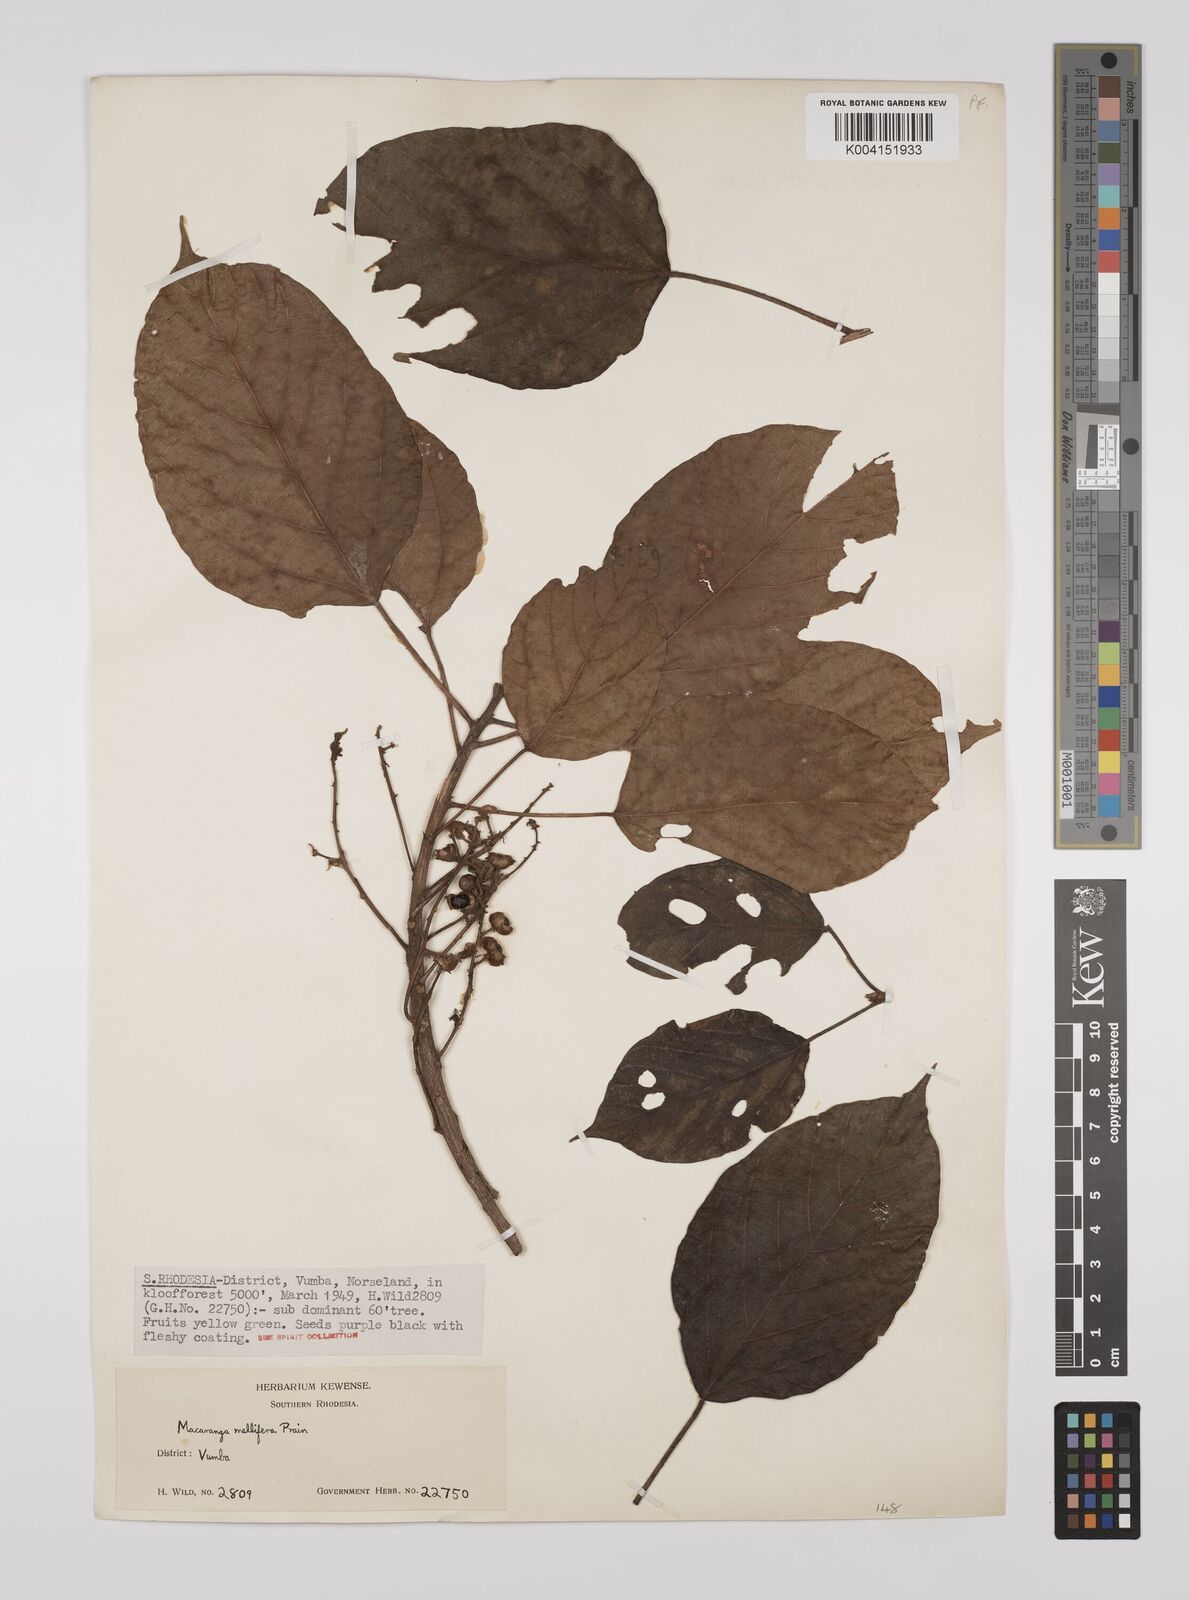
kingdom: Plantae
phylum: Tracheophyta
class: Magnoliopsida
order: Malpighiales
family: Euphorbiaceae
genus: Macaranga
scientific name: Macaranga mellifera
